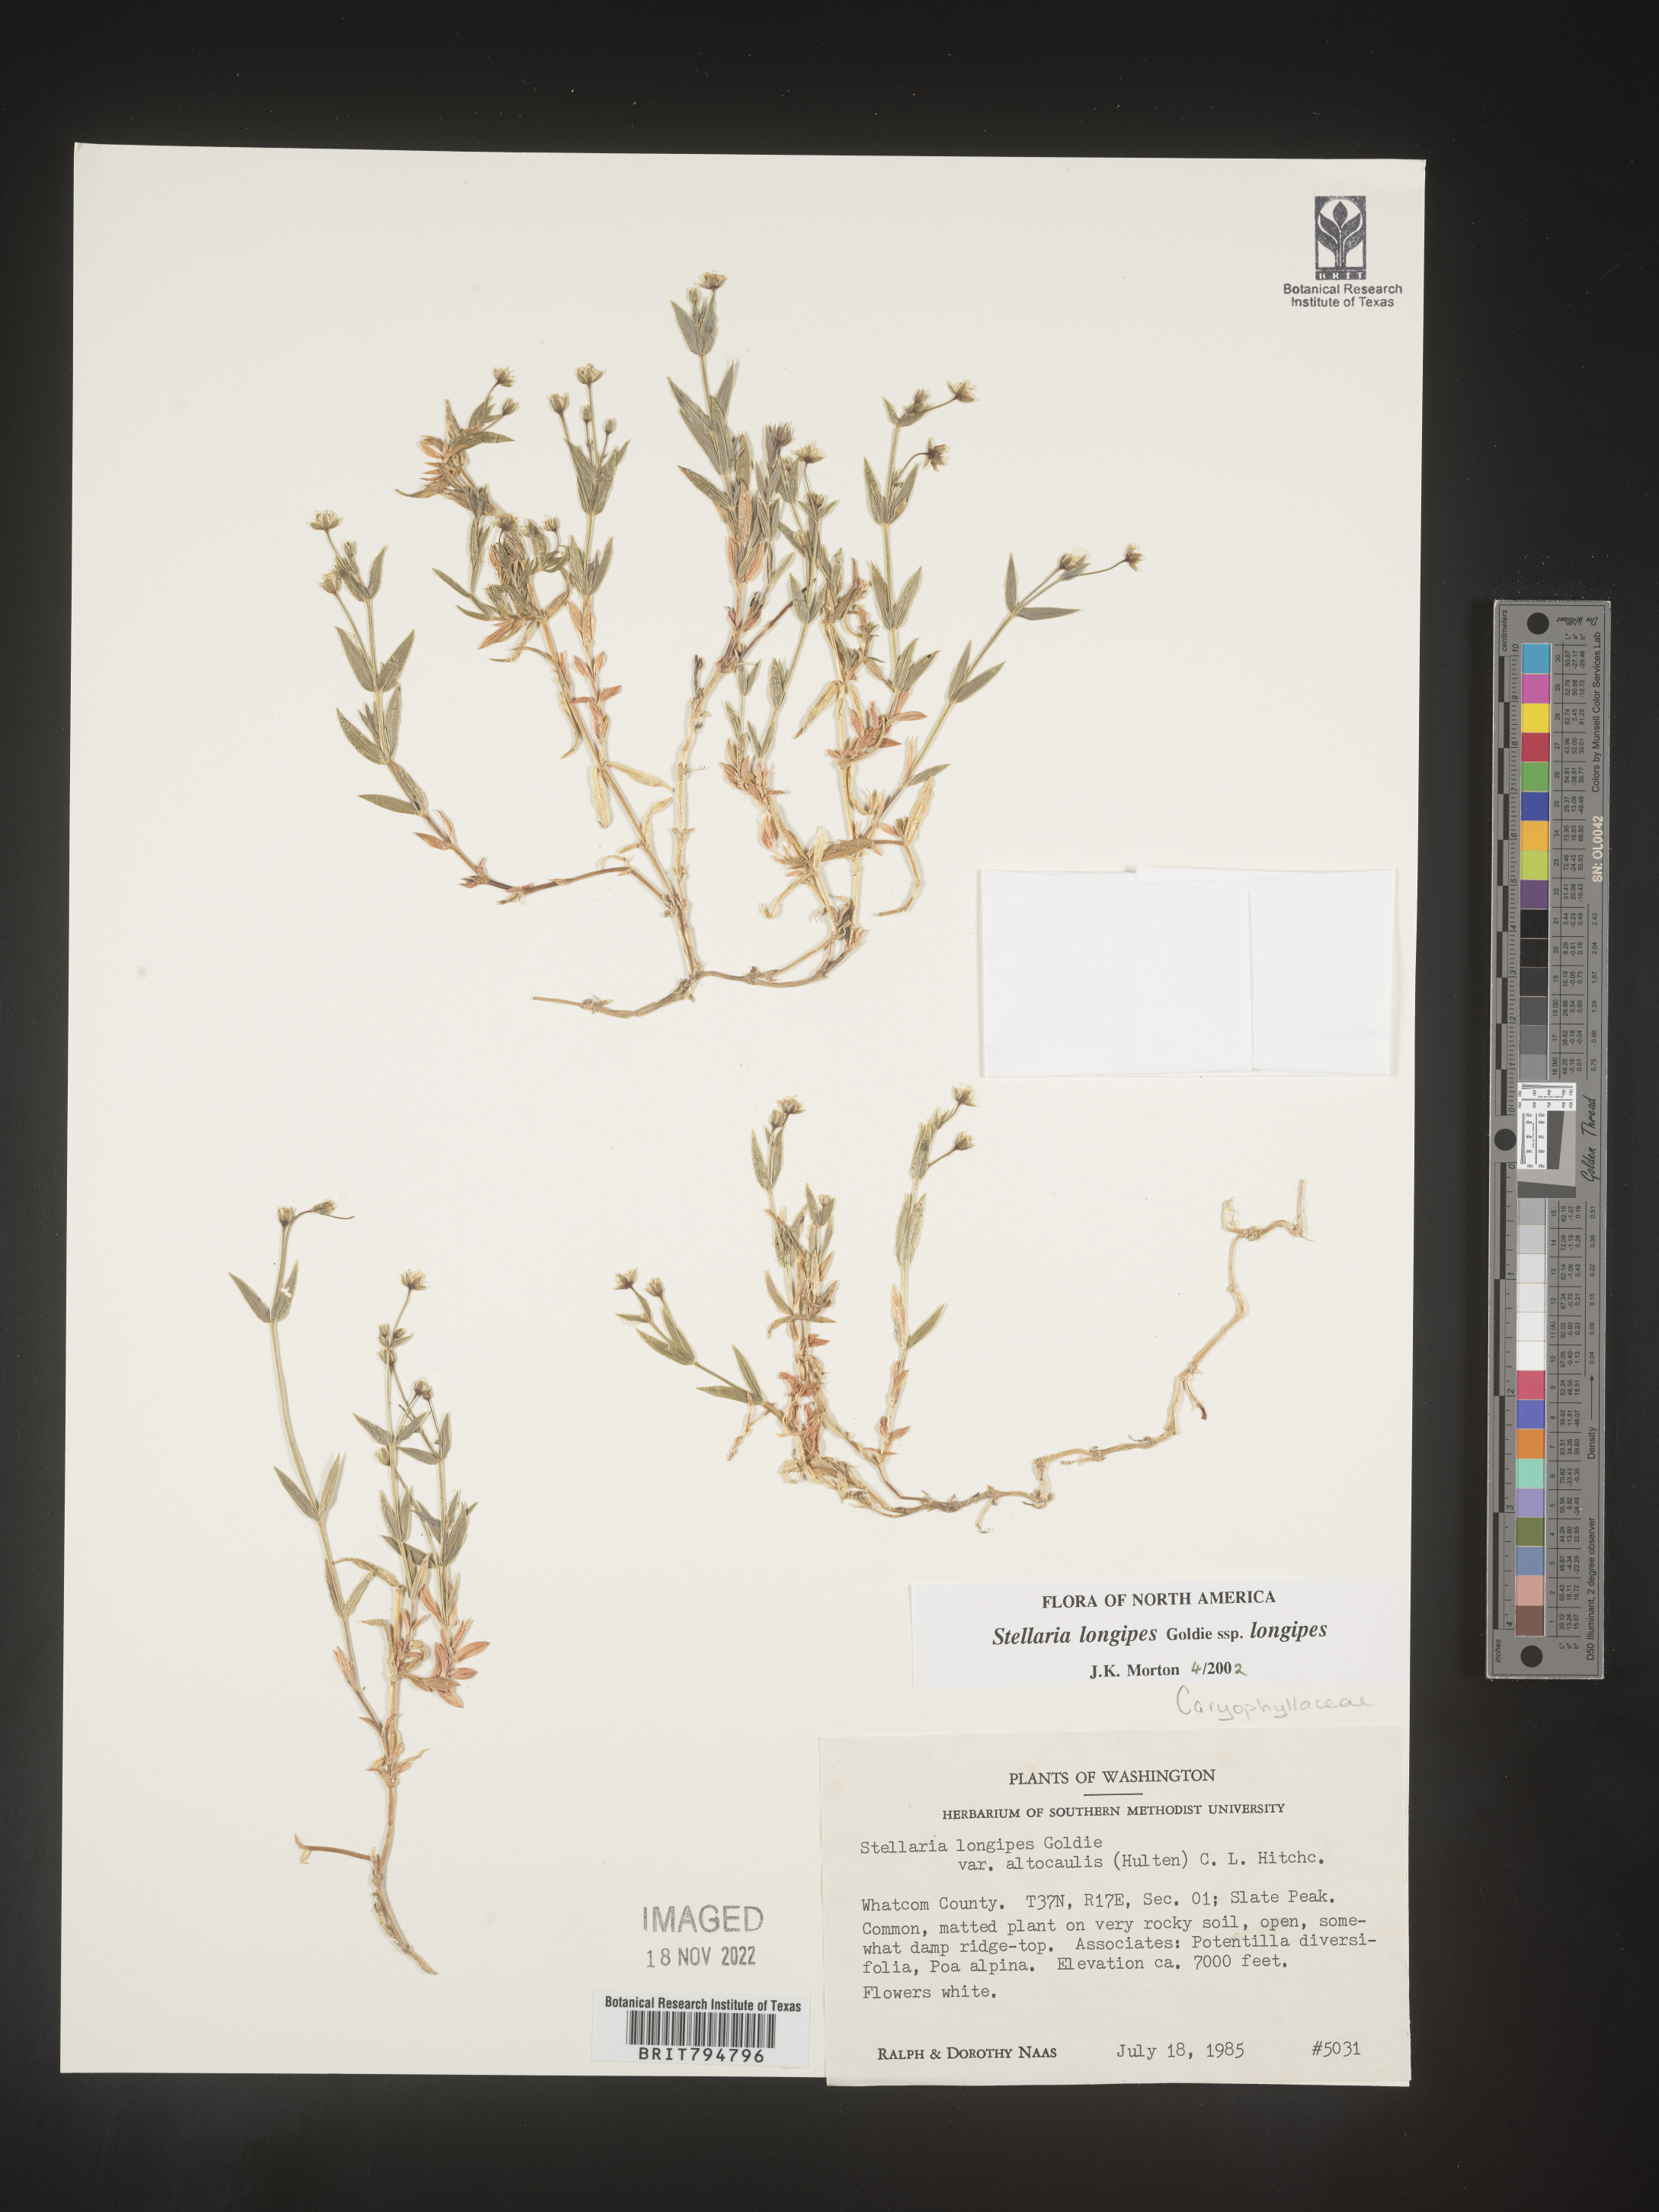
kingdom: Plantae
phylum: Tracheophyta
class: Magnoliopsida
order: Caryophyllales
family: Caryophyllaceae
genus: Stellaria
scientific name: Stellaria longipes
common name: Goldie's starwort
